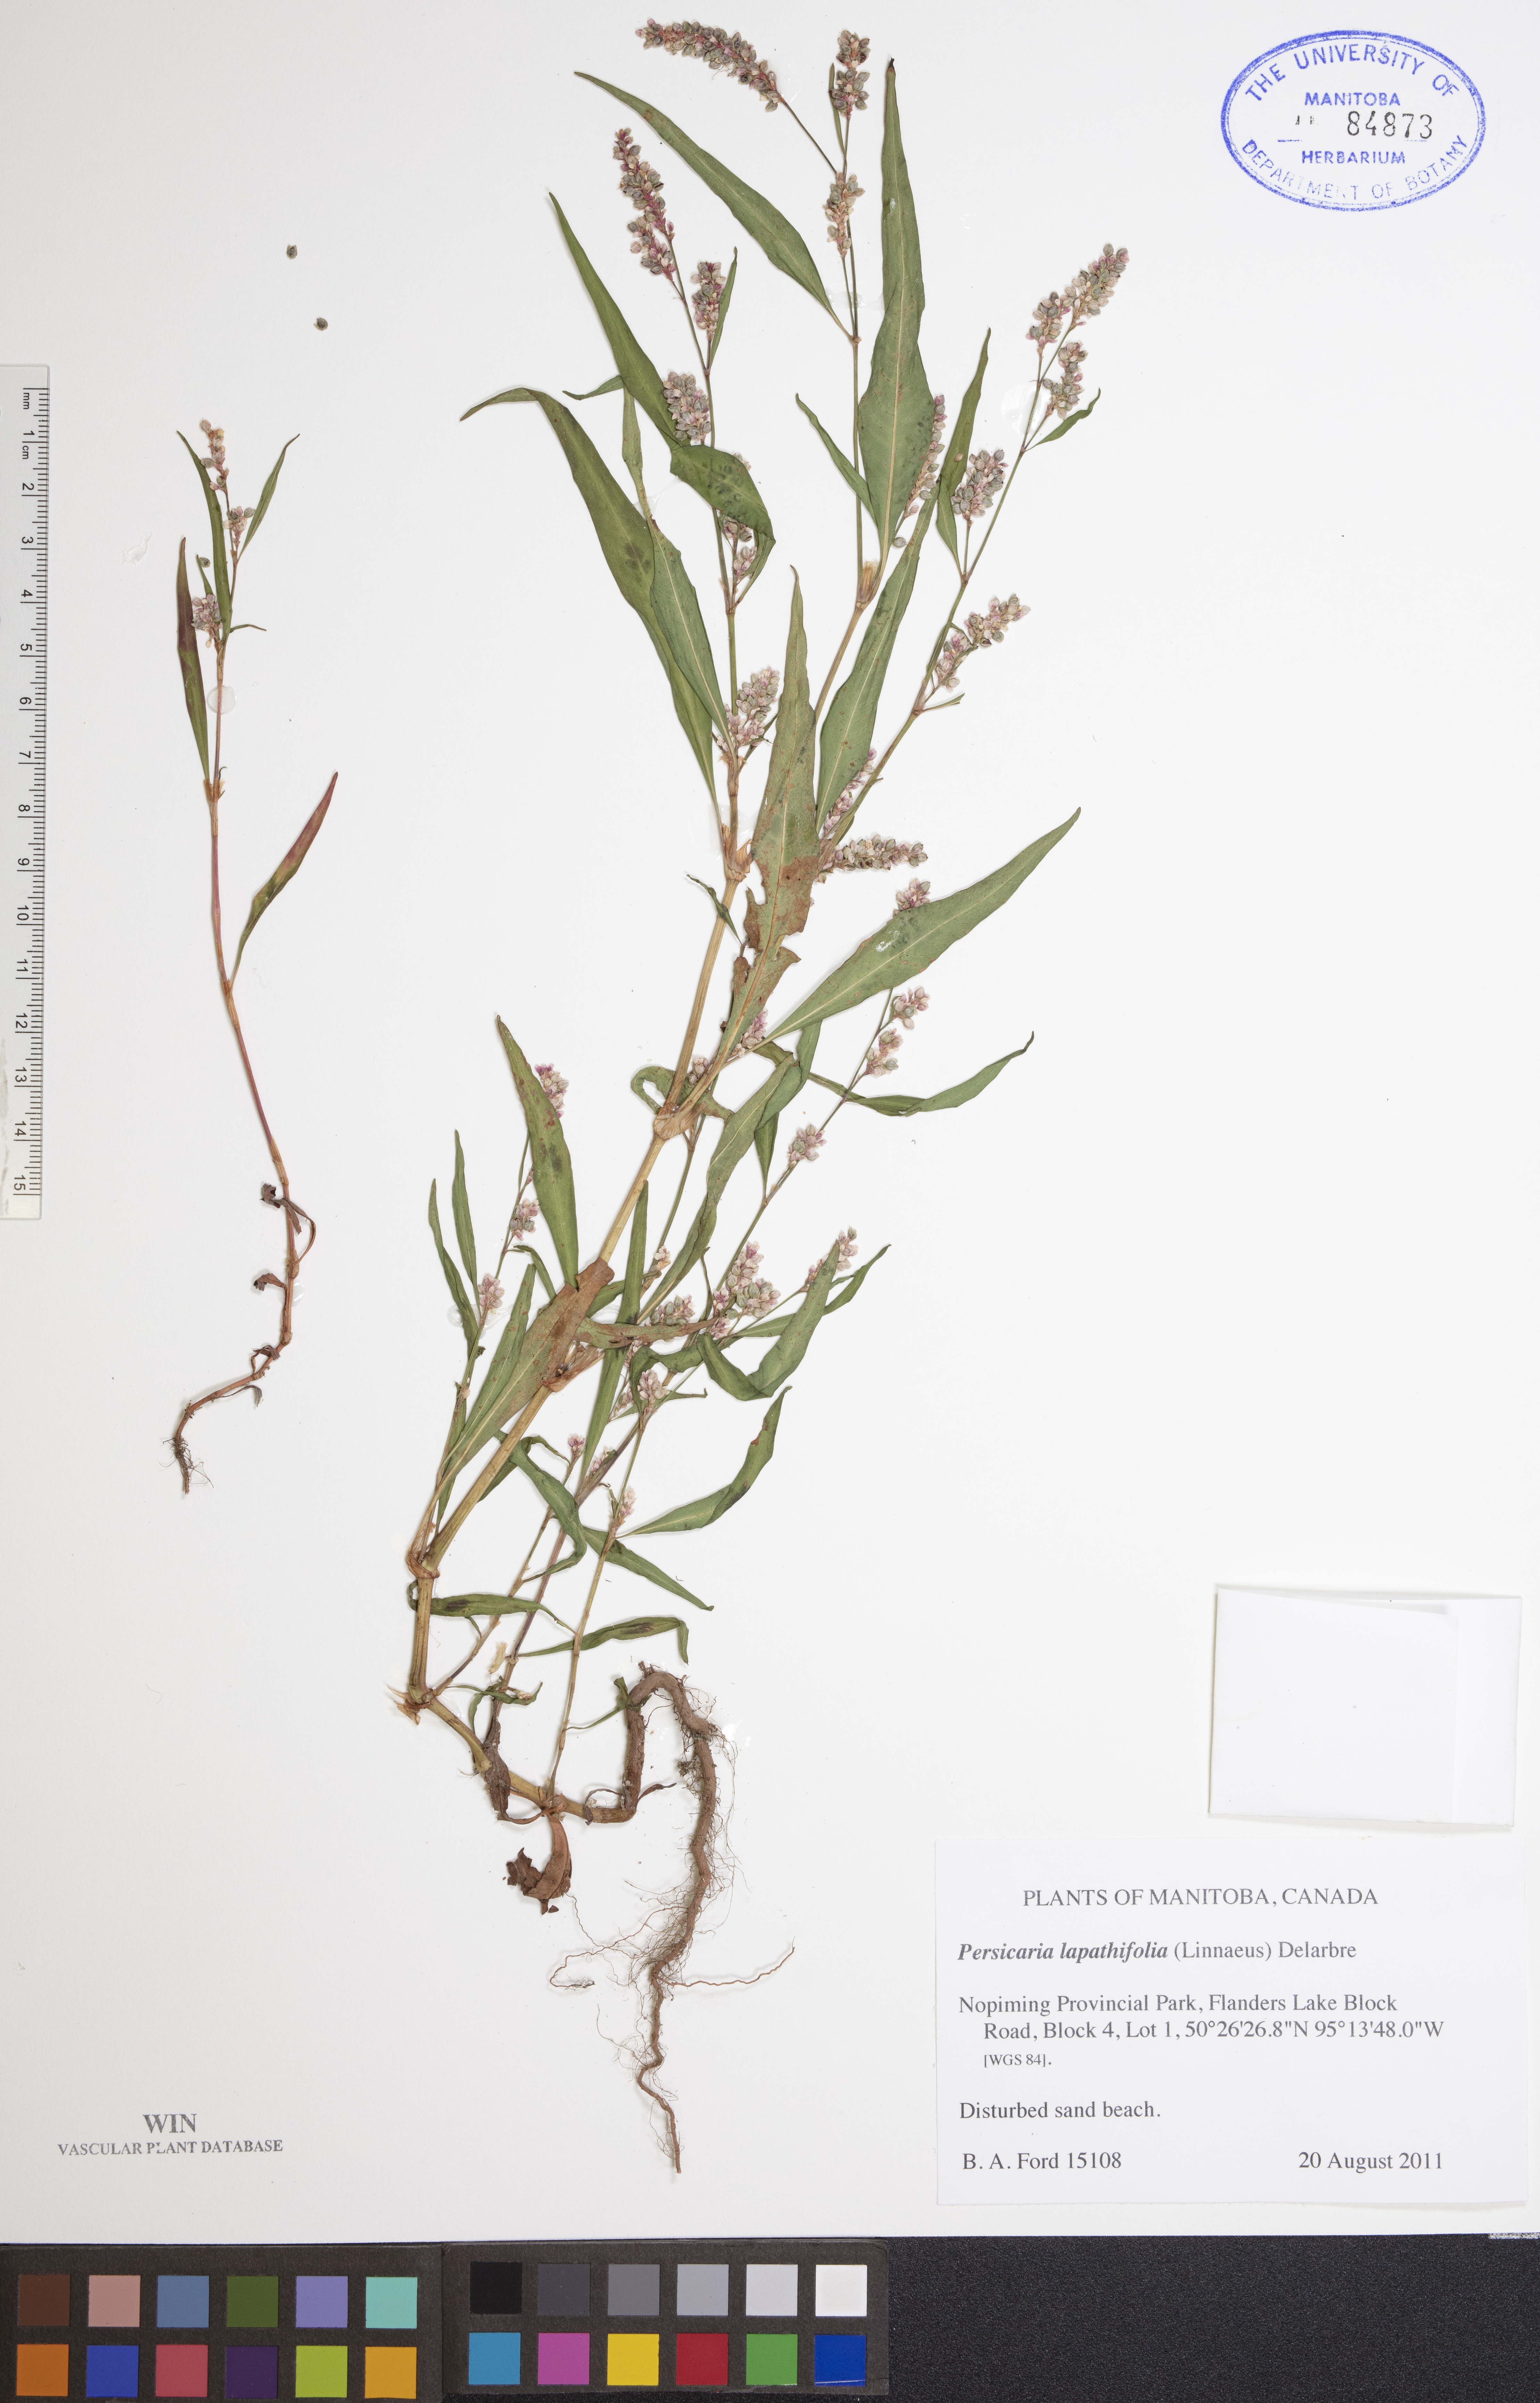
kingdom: Plantae
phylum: Tracheophyta
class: Magnoliopsida
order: Caryophyllales
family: Polygonaceae
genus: Persicaria
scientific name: Persicaria lapathifolia
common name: Curlytop knotweed
